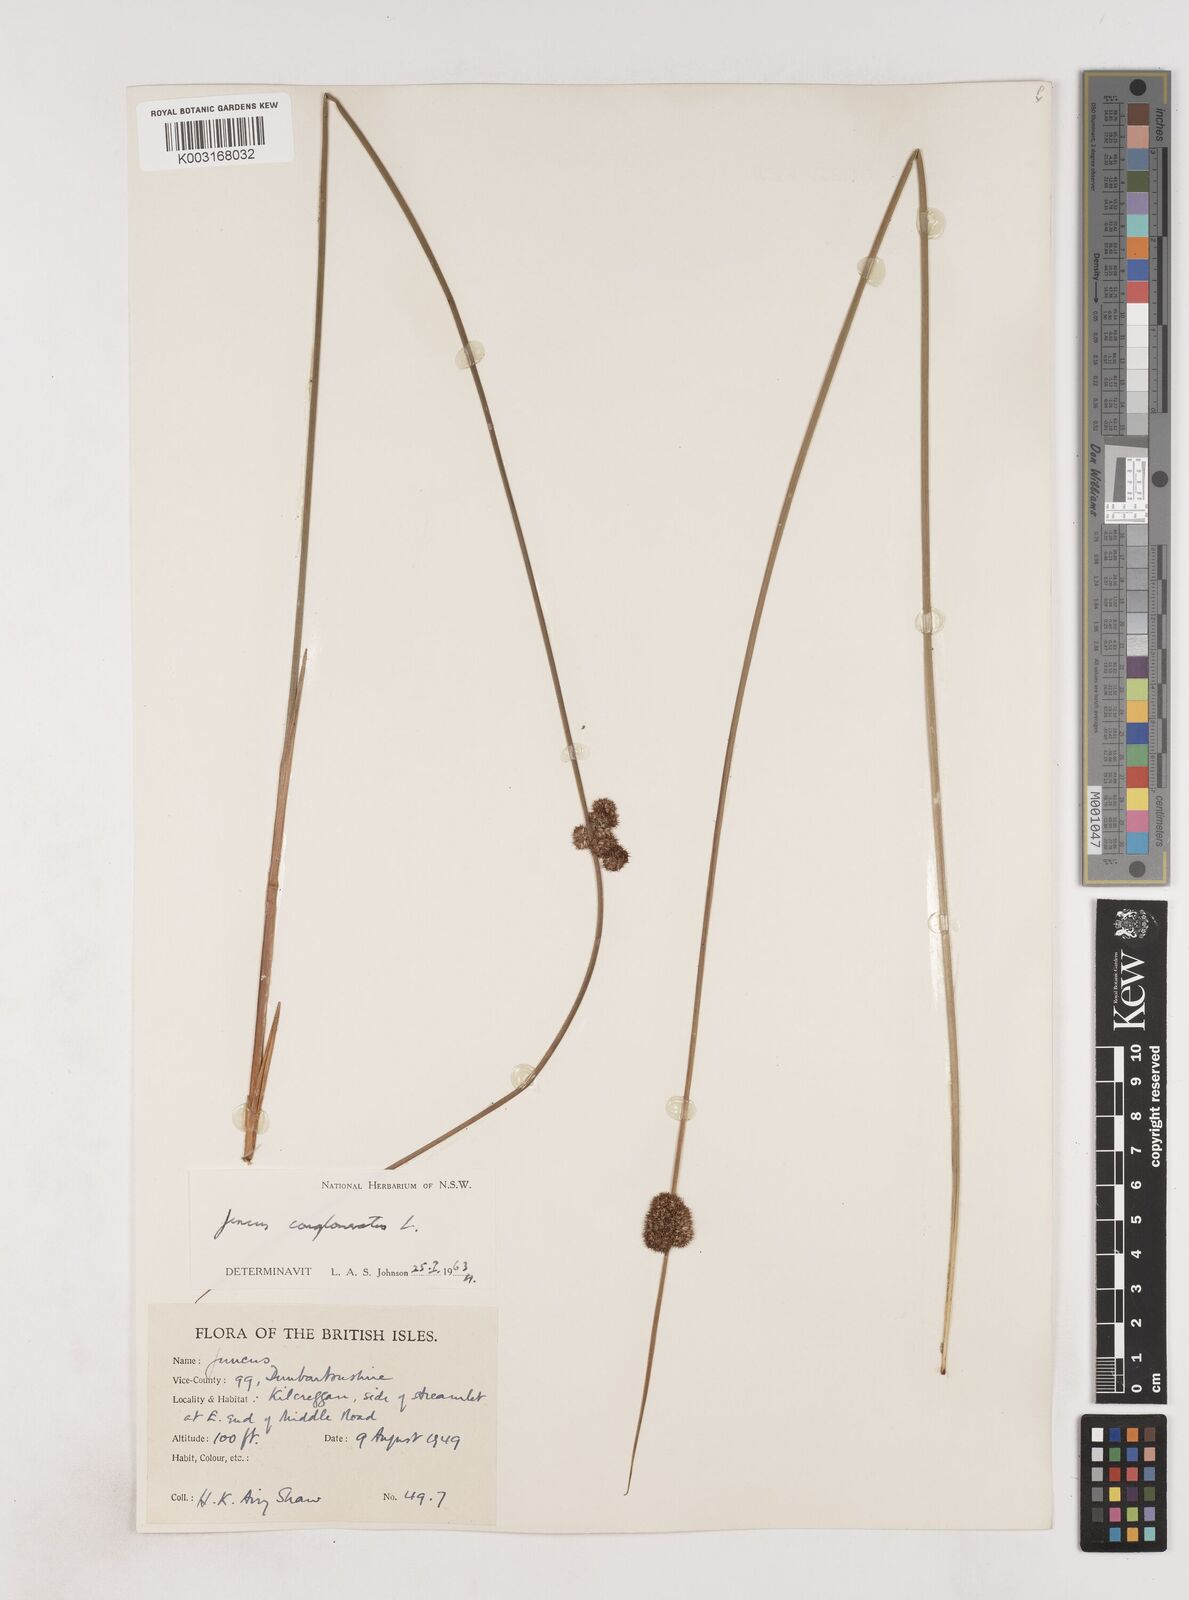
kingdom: Plantae
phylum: Tracheophyta
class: Liliopsida
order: Poales
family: Juncaceae
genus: Juncus
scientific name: Juncus conglomeratus
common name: Compact rush
